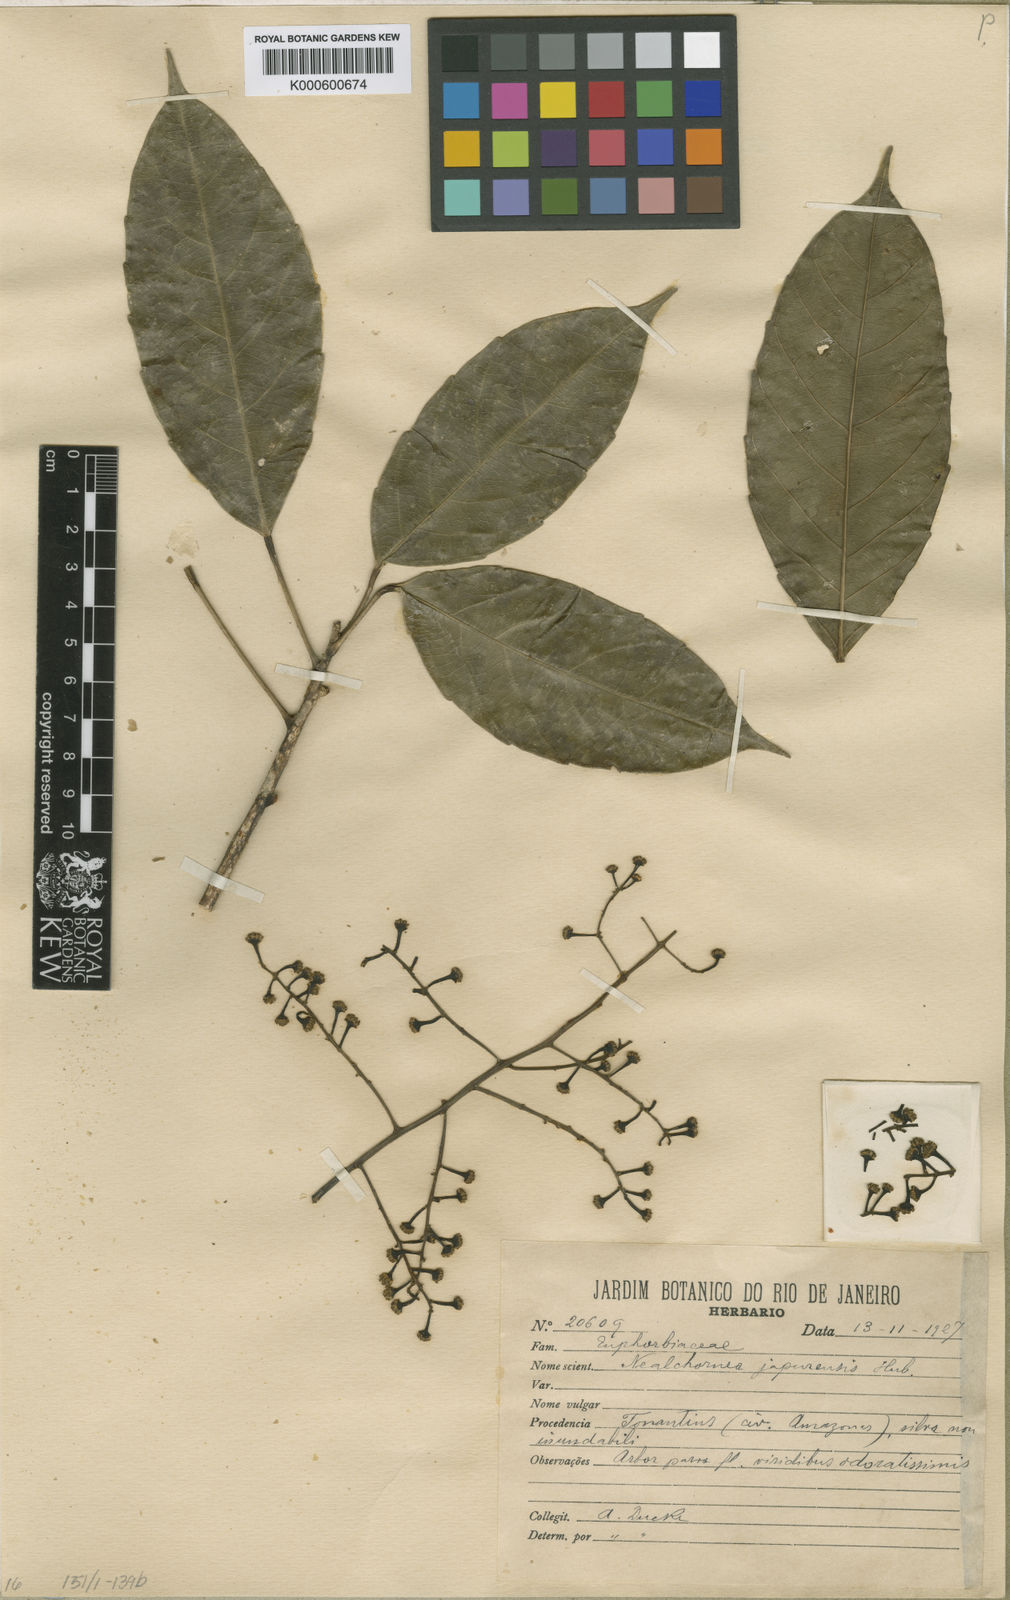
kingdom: Plantae
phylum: Tracheophyta
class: Magnoliopsida
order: Malpighiales
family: Euphorbiaceae
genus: Nealchornea
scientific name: Nealchornea yapurensis
